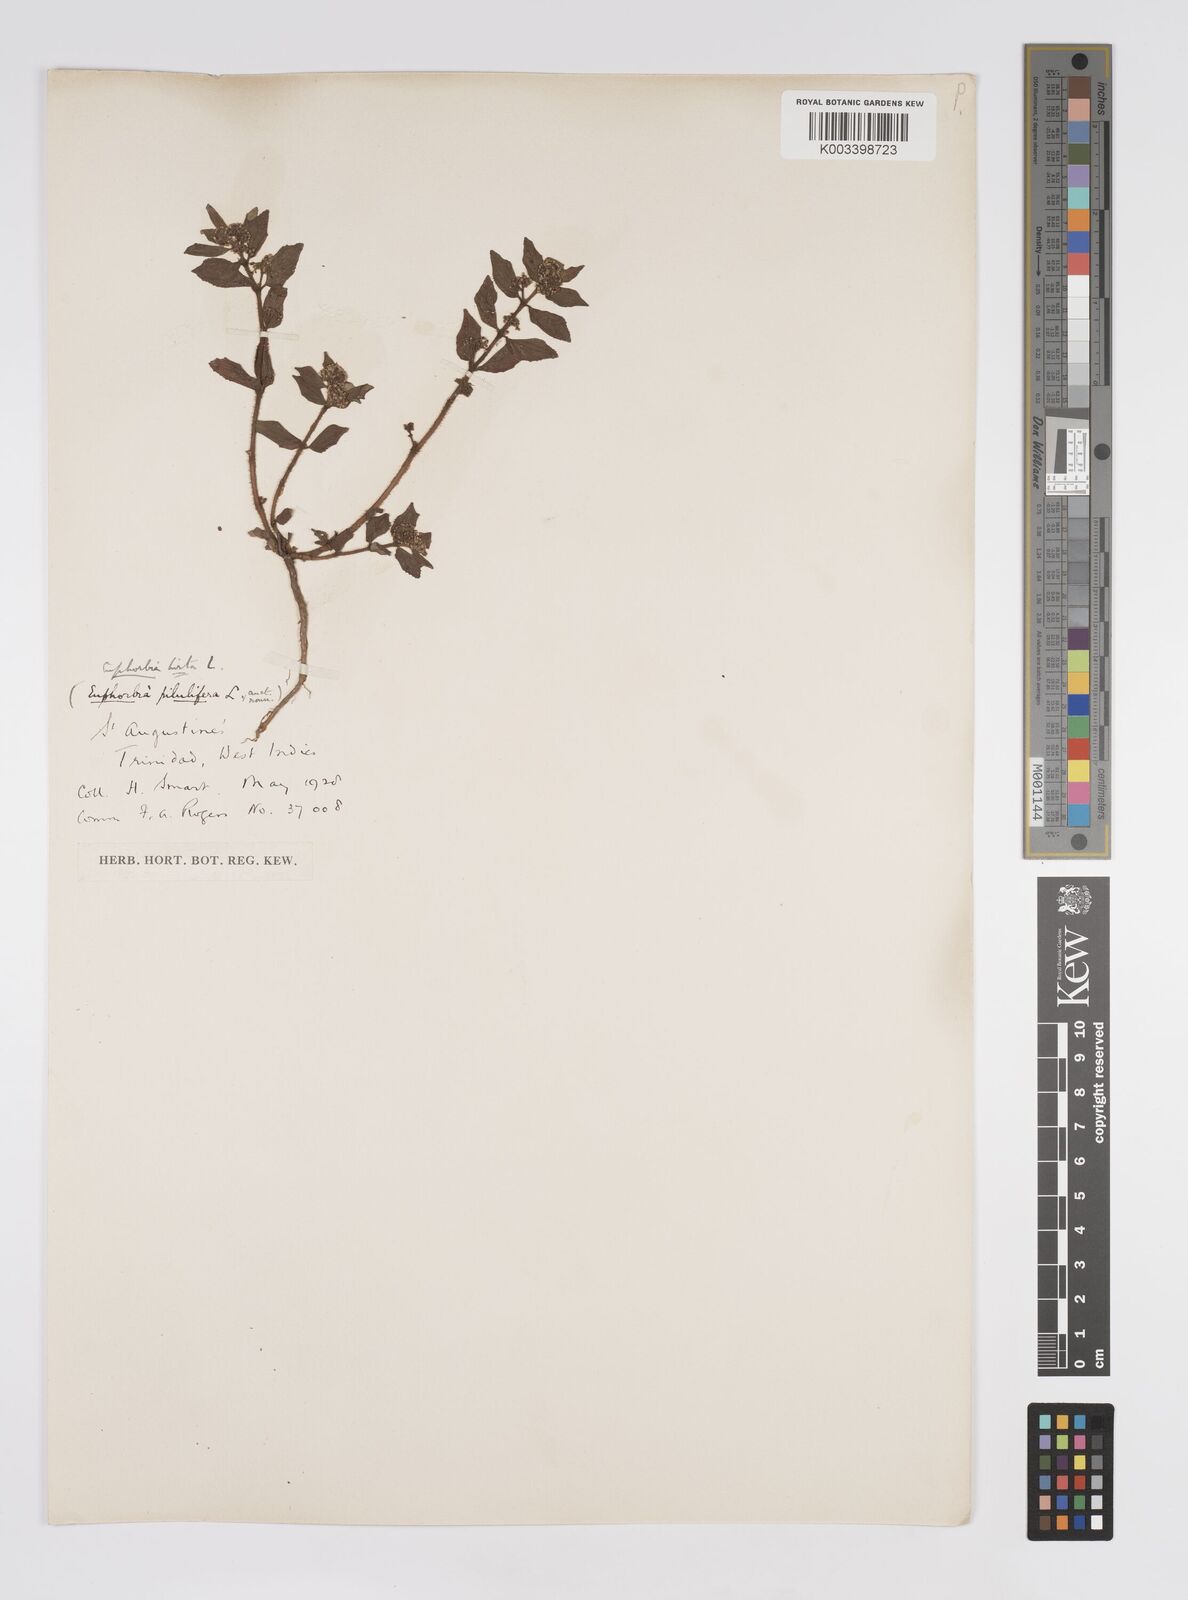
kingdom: Plantae
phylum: Tracheophyta
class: Magnoliopsida
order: Malpighiales
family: Euphorbiaceae
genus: Euphorbia
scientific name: Euphorbia hirta
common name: Pillpod sandmat
